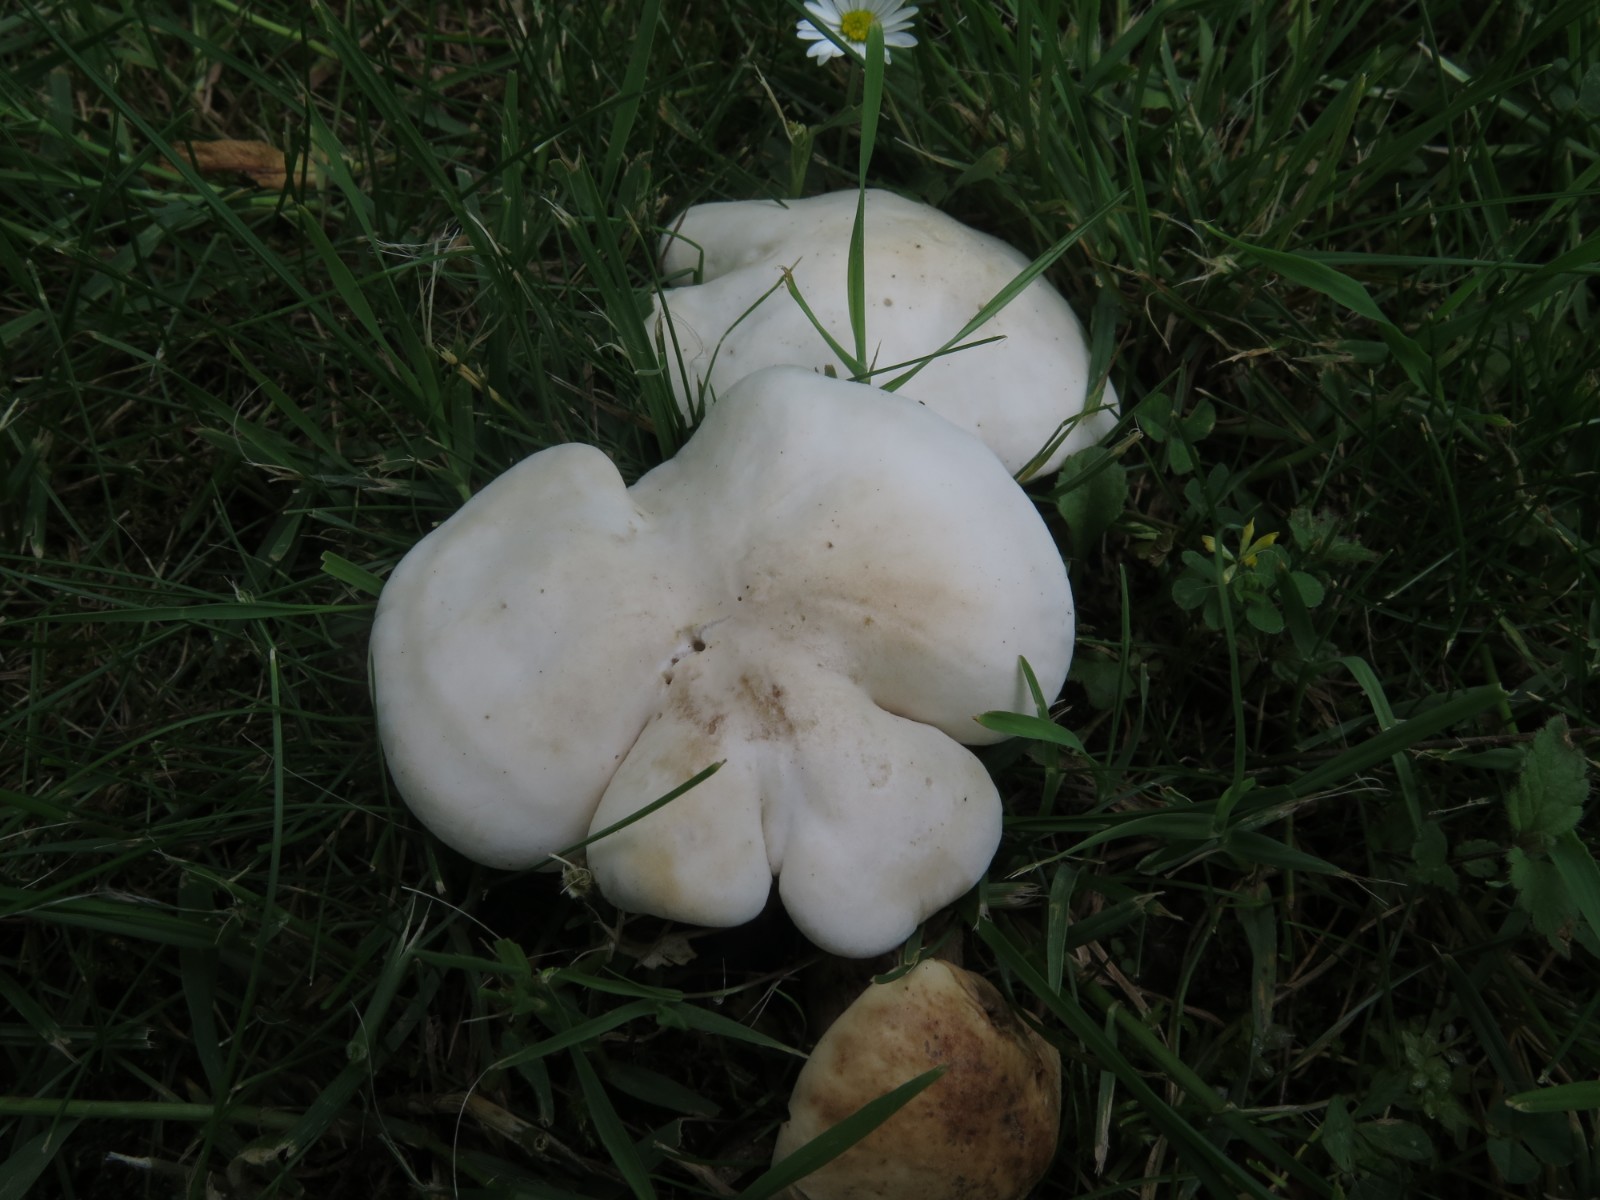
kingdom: Fungi
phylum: Basidiomycota
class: Agaricomycetes
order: Agaricales
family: Lyophyllaceae
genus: Calocybe
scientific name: Calocybe gambosa
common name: vårmusseron
